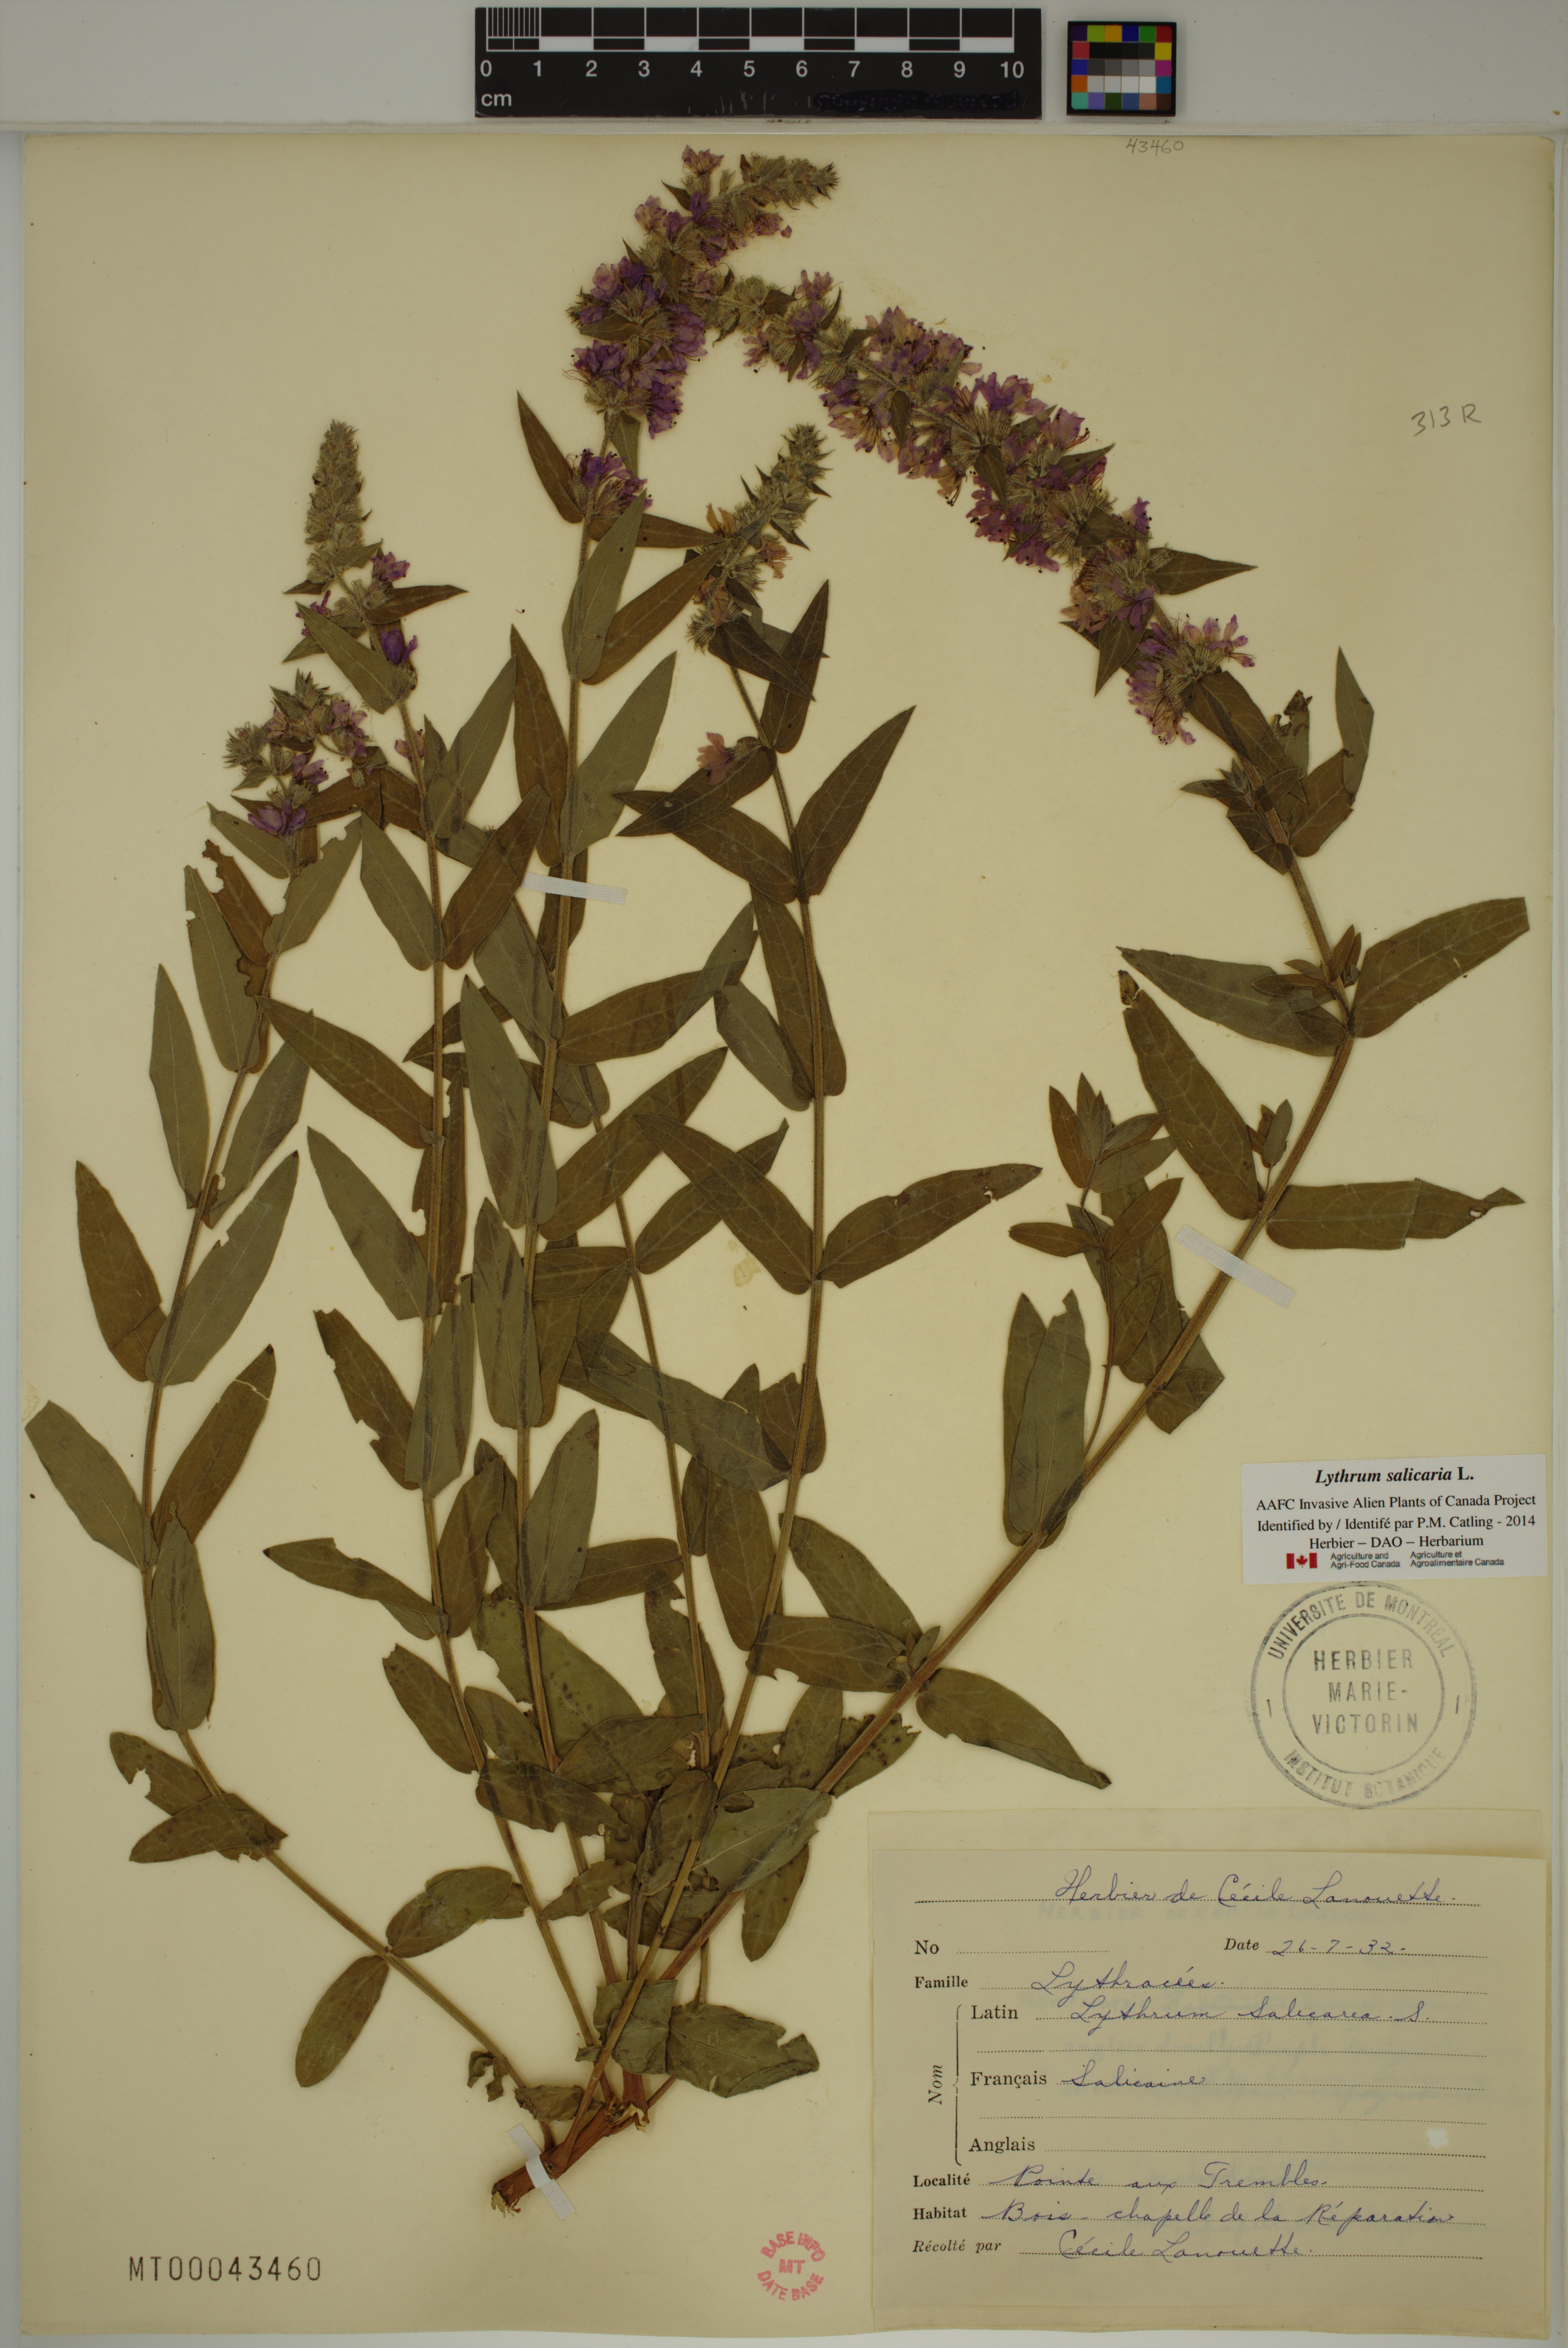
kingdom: Plantae
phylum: Tracheophyta
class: Magnoliopsida
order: Myrtales
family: Lythraceae
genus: Lythrum
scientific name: Lythrum salicaria
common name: Purple loosestrife
